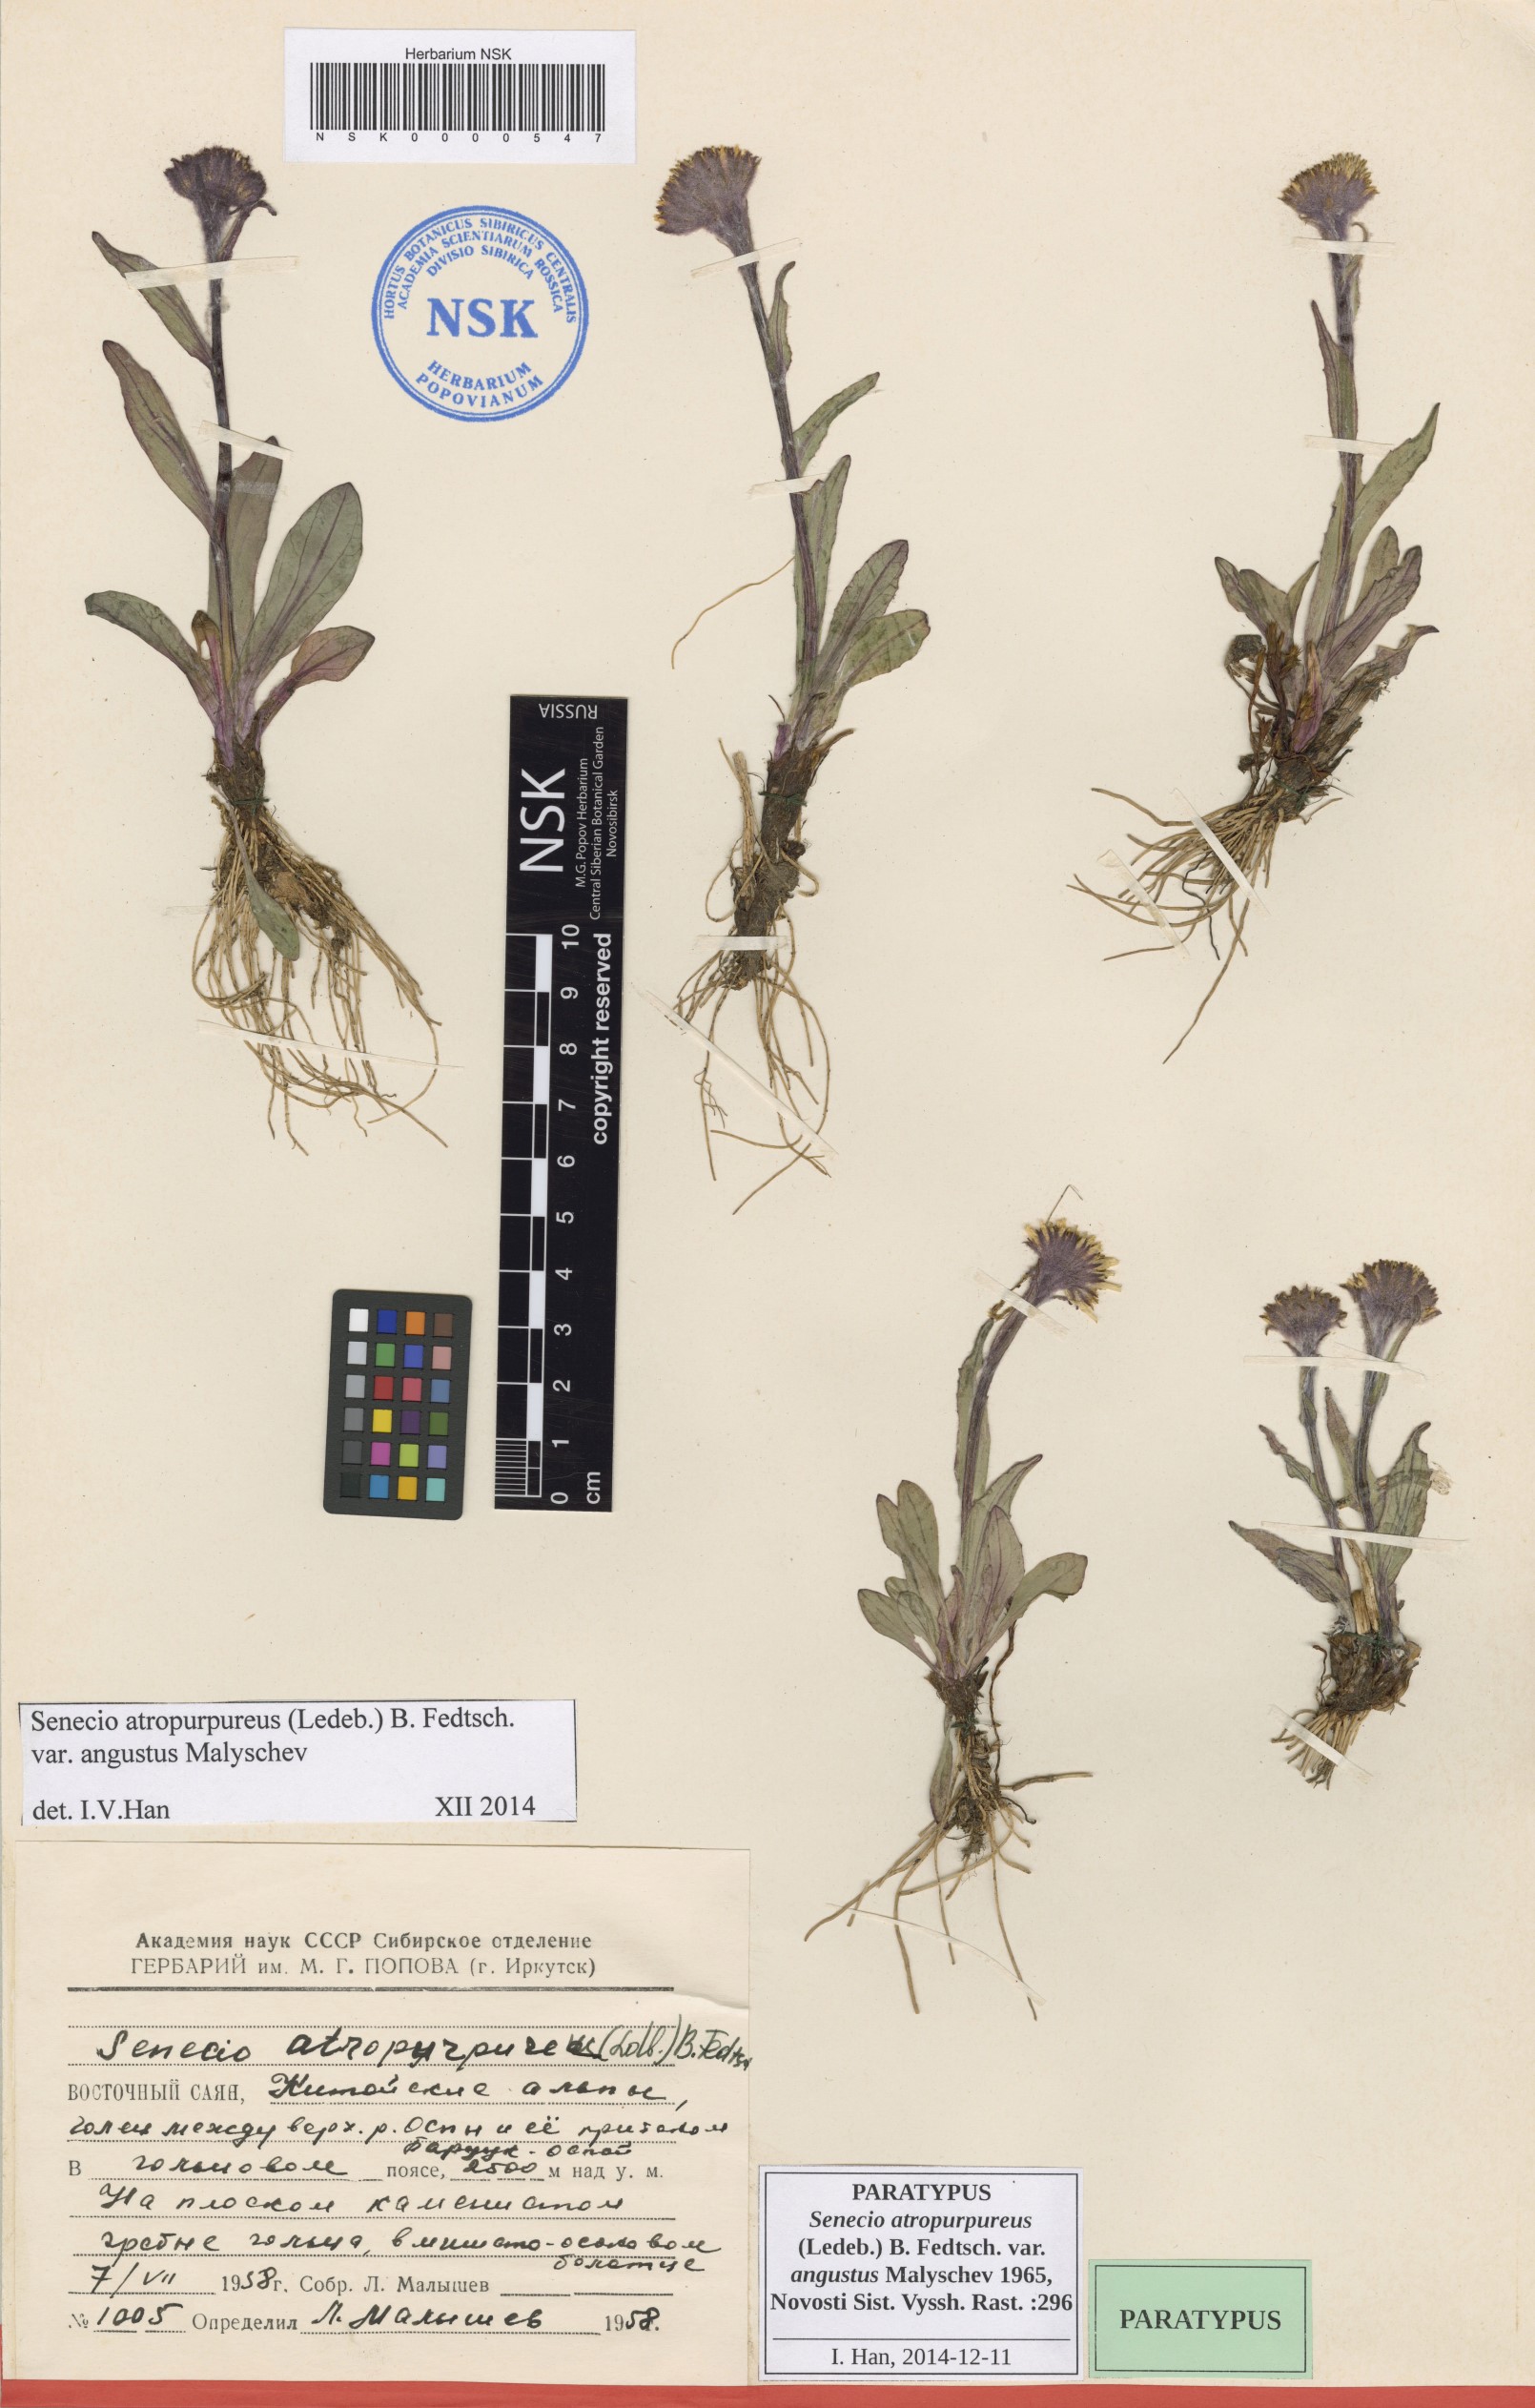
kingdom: Plantae
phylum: Tracheophyta
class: Magnoliopsida
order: Asterales
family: Asteraceae
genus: Tephroseris
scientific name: Tephroseris integrifolia
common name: Field fleawort
